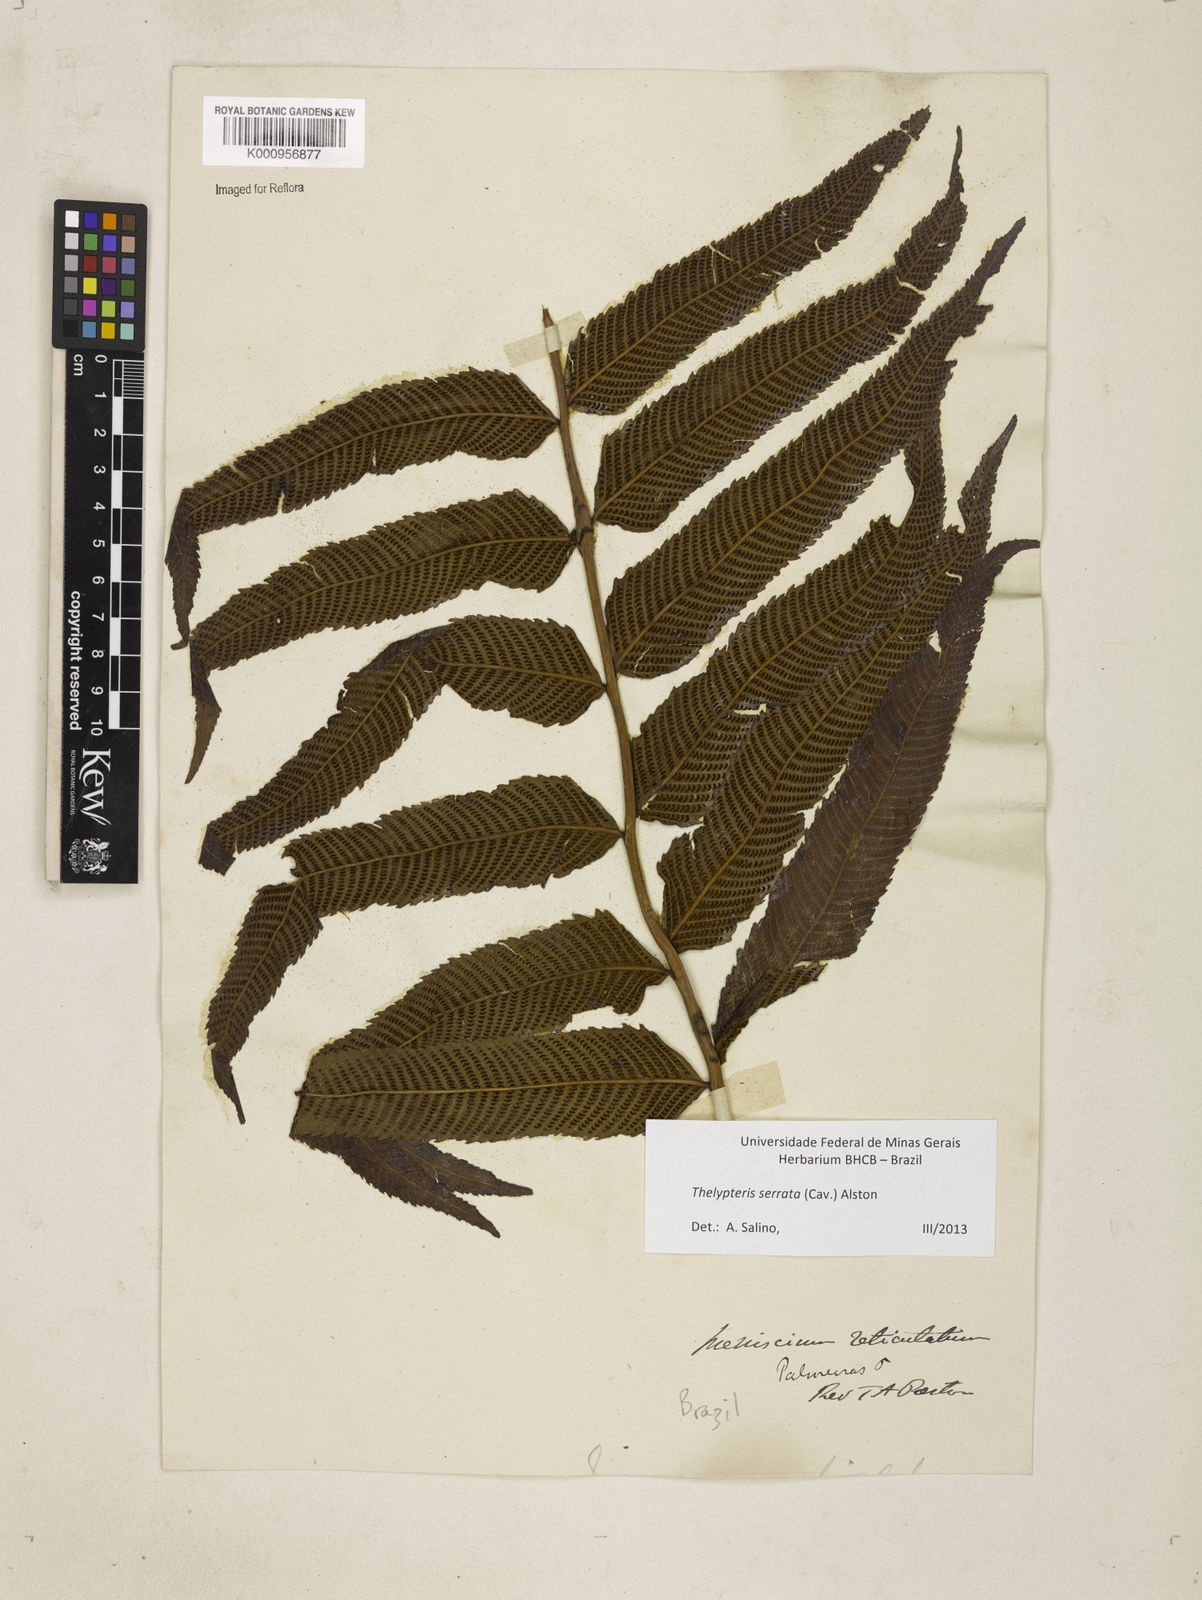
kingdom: Plantae
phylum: Tracheophyta
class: Polypodiopsida
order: Polypodiales
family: Thelypteridaceae
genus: Meniscium
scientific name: Meniscium serratum
